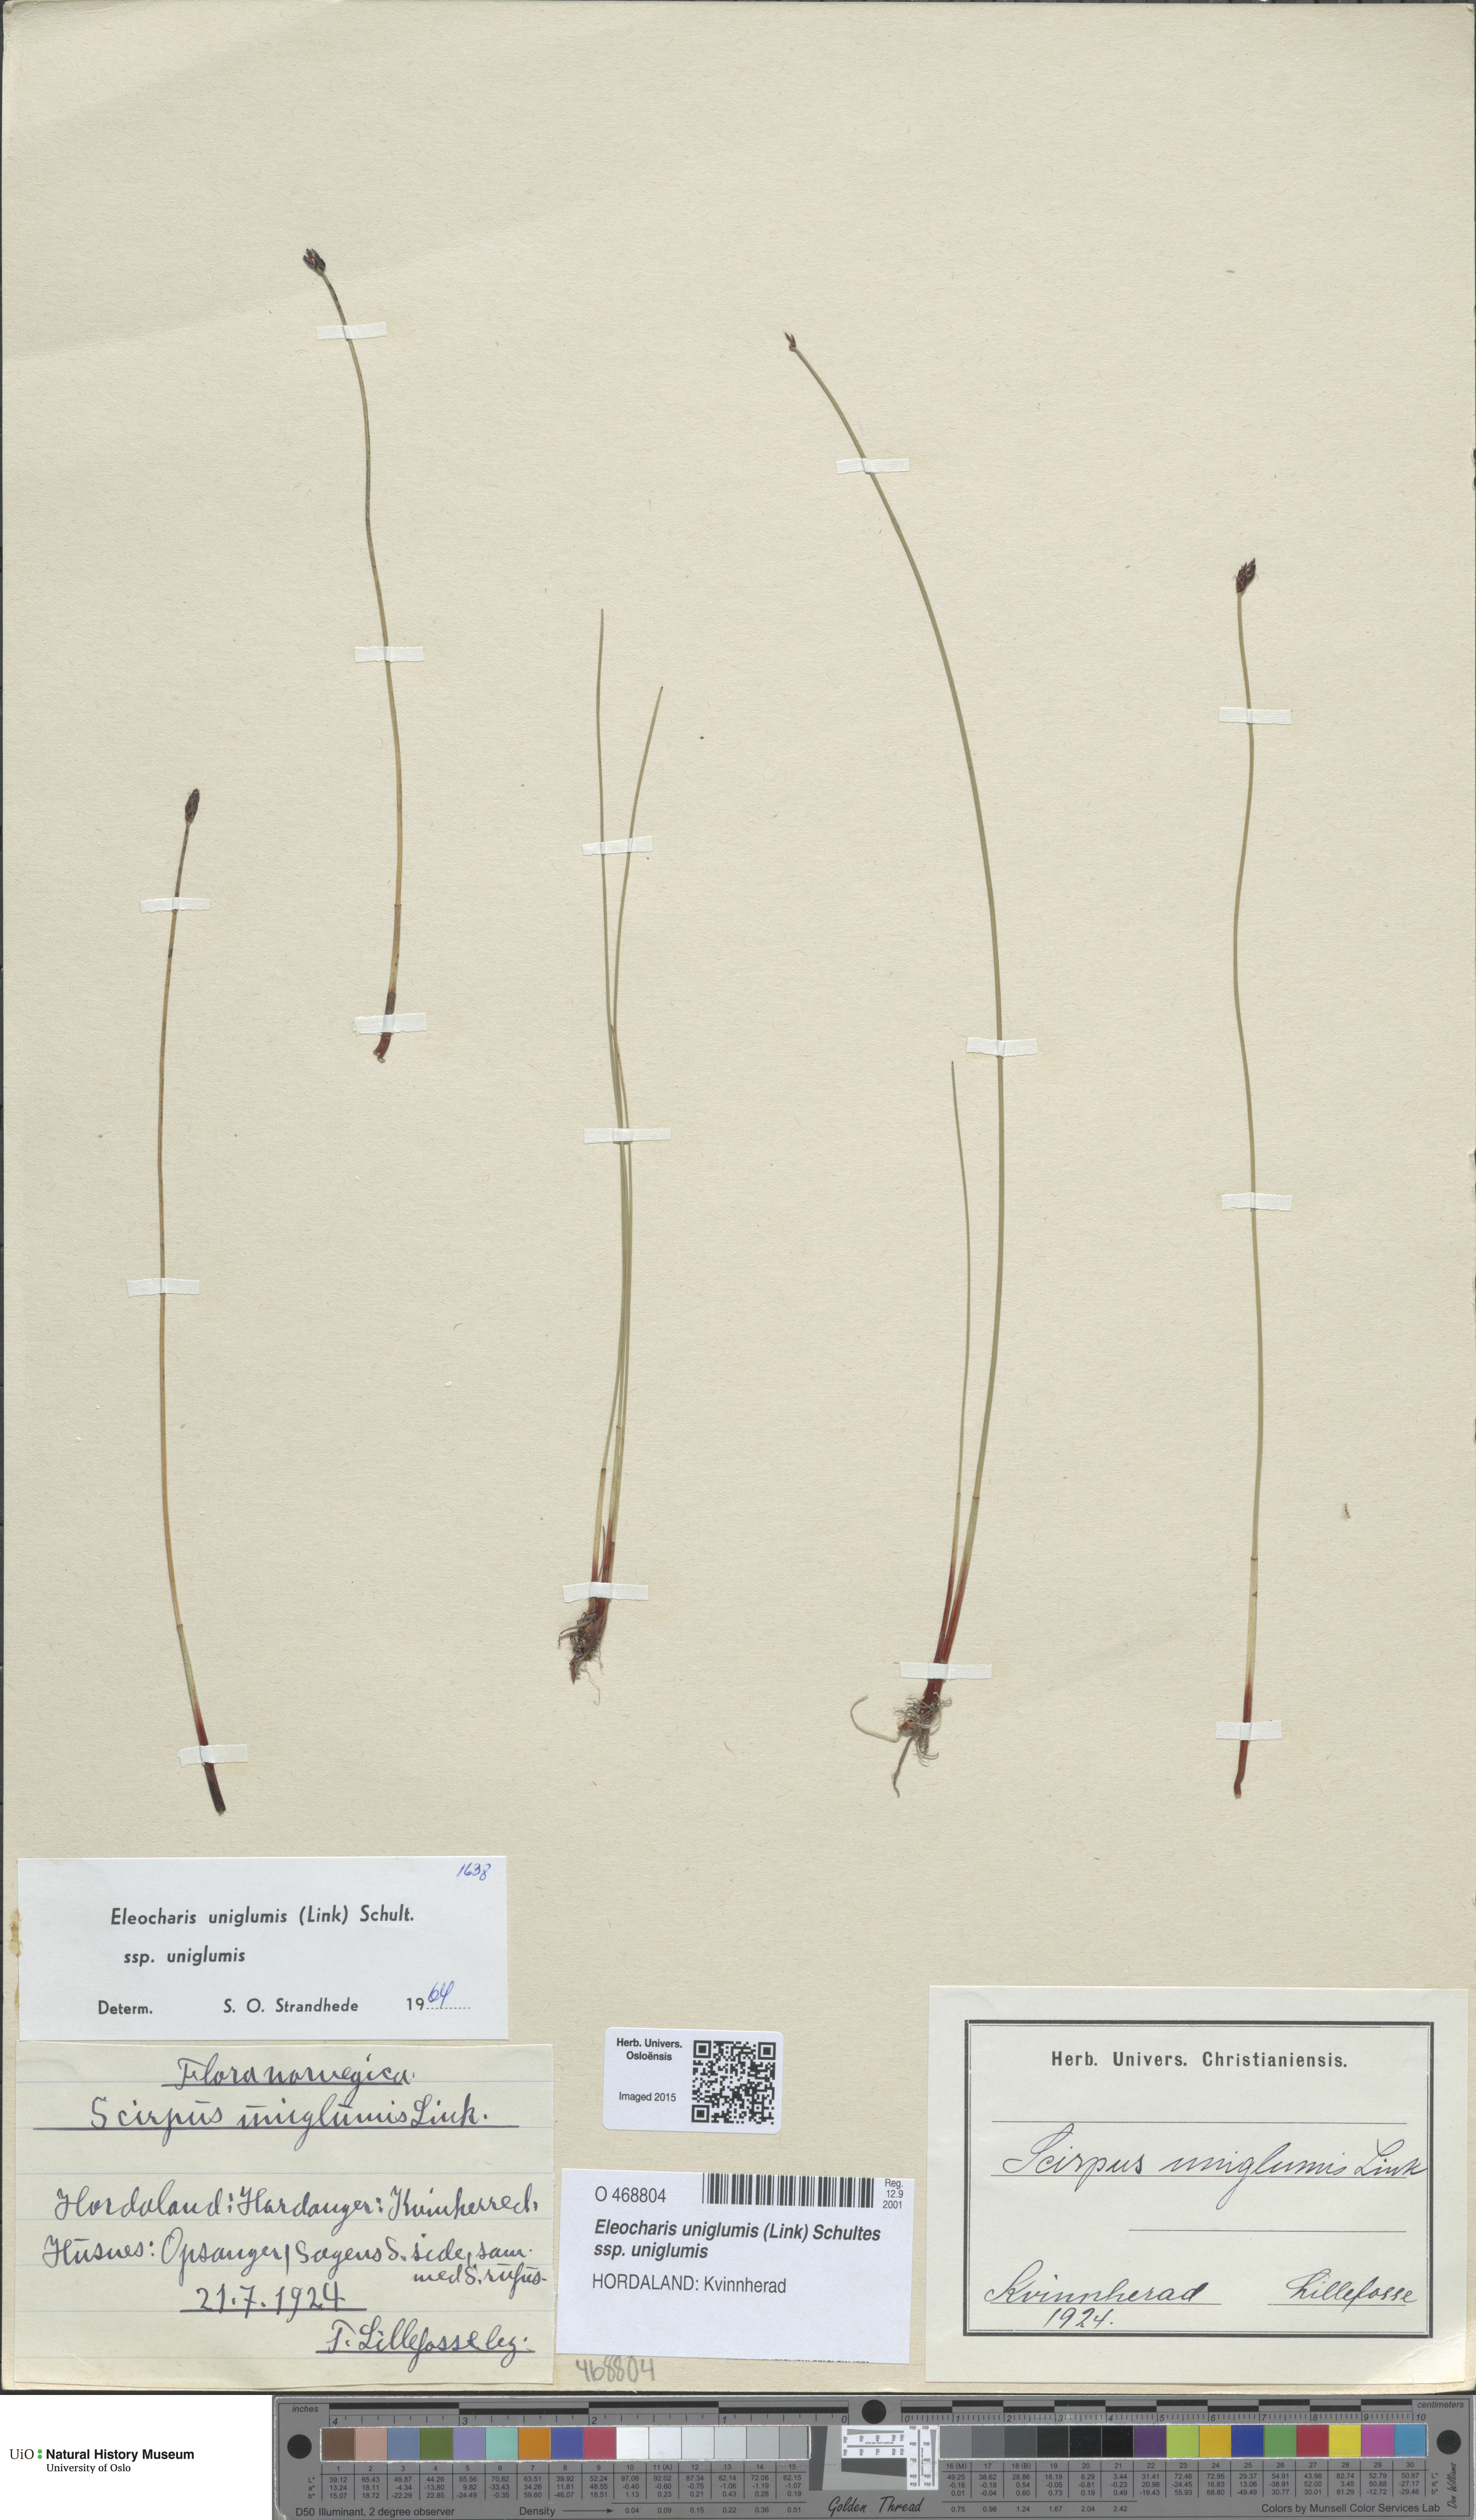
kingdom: Plantae
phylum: Tracheophyta
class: Liliopsida
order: Poales
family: Cyperaceae
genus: Eleocharis
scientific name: Eleocharis uniglumis
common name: Slender spike-rush
